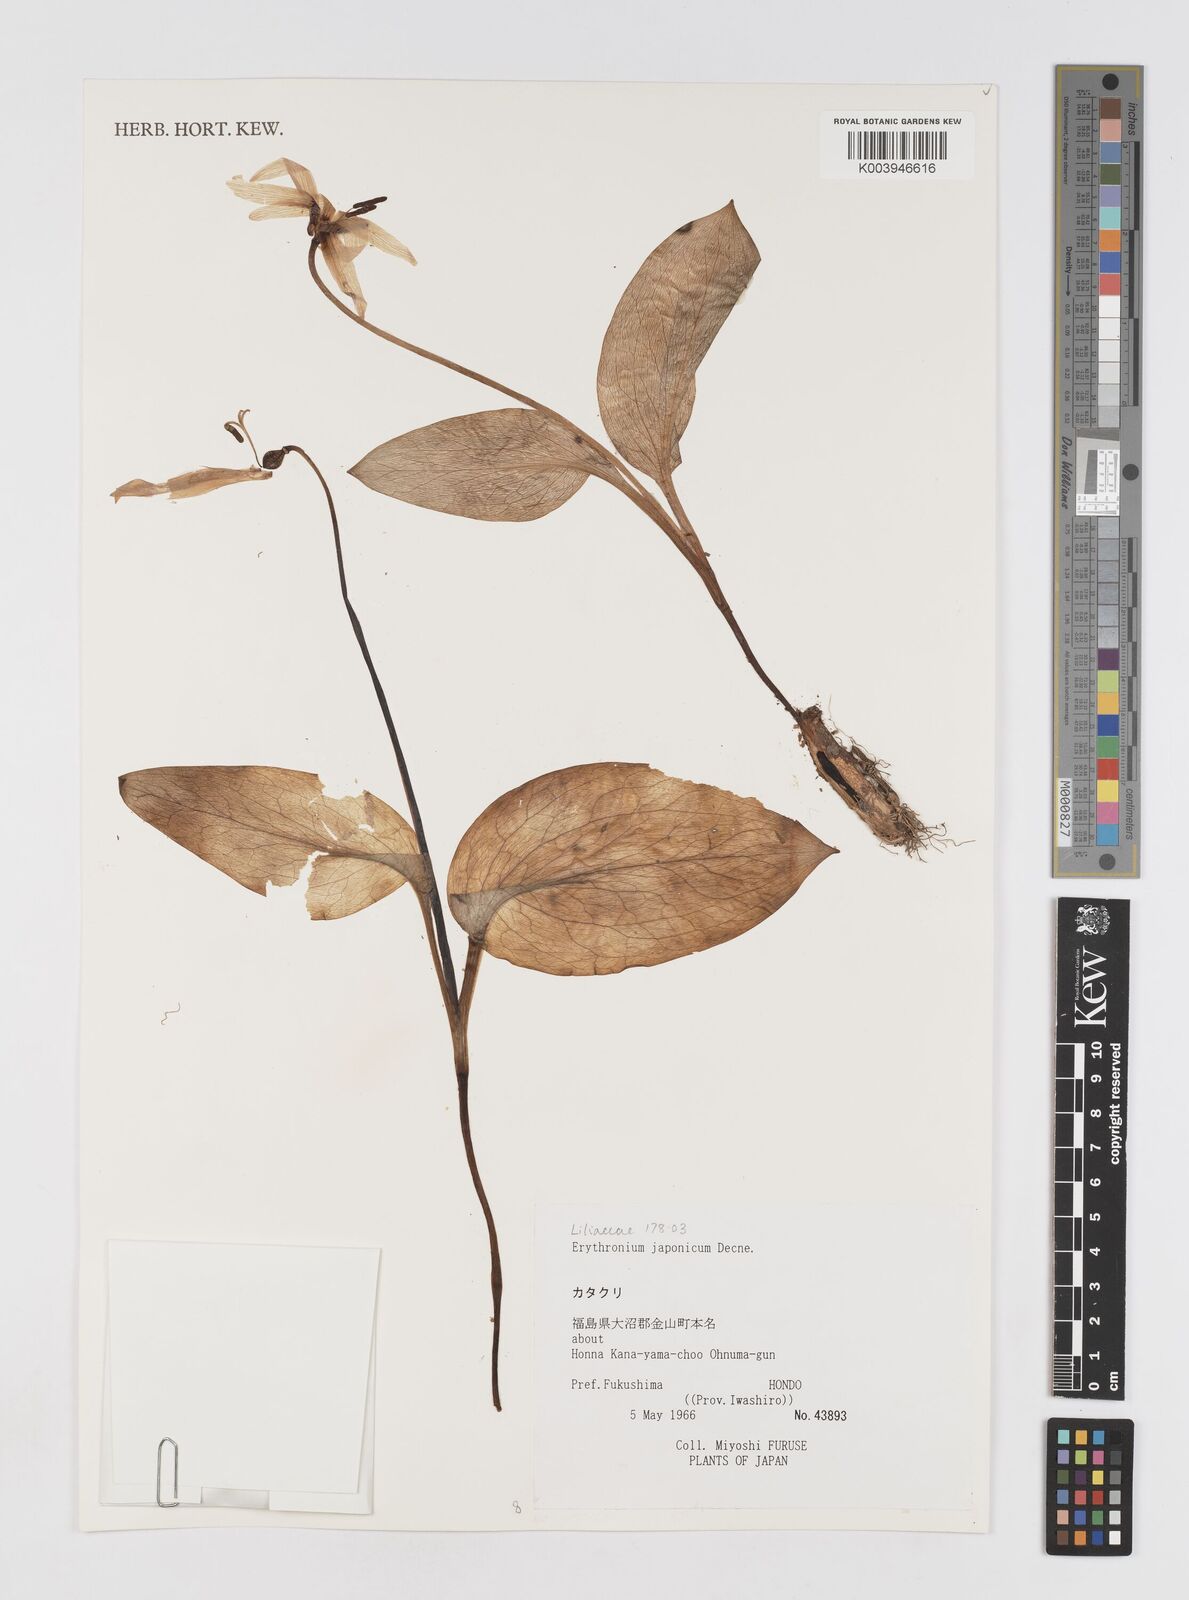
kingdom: Plantae
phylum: Tracheophyta
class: Liliopsida
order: Liliales
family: Liliaceae
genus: Erythronium
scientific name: Erythronium japonicum
